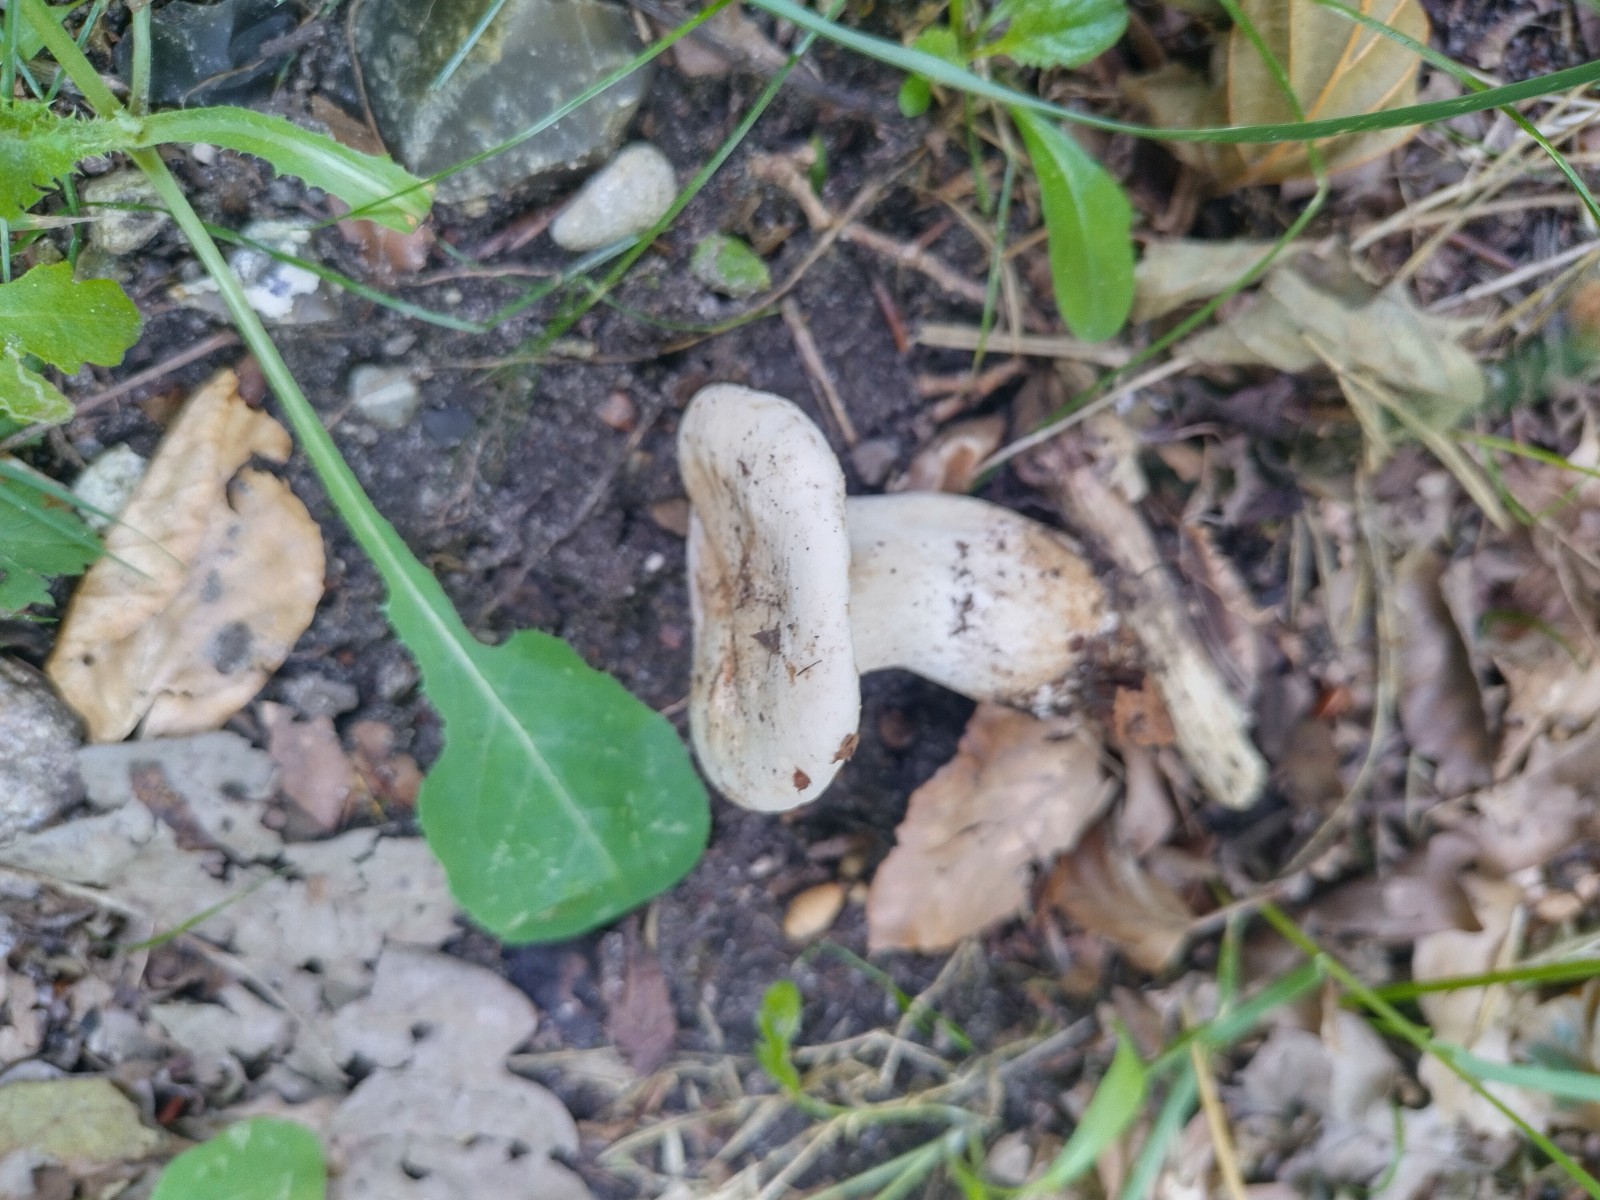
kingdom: Fungi
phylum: Basidiomycota
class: Agaricomycetes
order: Agaricales
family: Tricholomataceae
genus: Clitocybe
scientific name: Clitocybe nebularis
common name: tåge-tragthat
